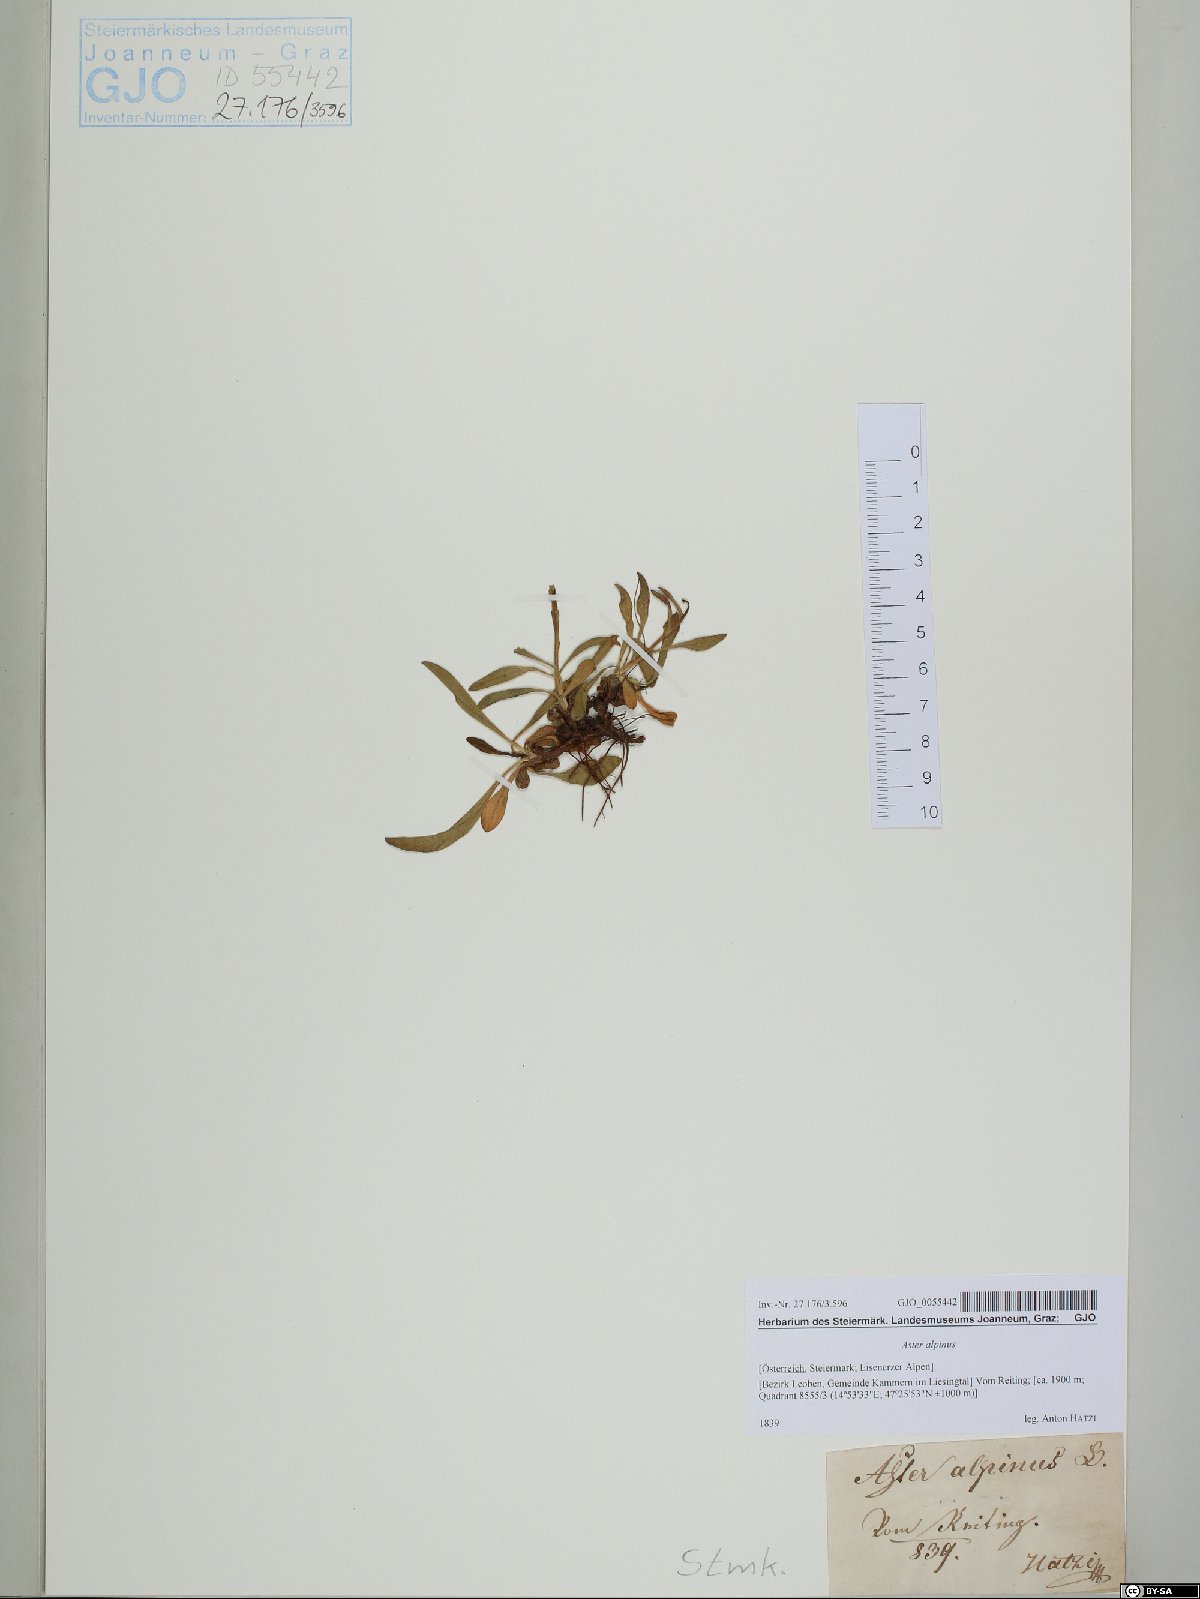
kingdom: Plantae
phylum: Tracheophyta
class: Magnoliopsida
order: Asterales
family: Asteraceae
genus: Aster
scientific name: Aster alpinus
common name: Alpine aster
